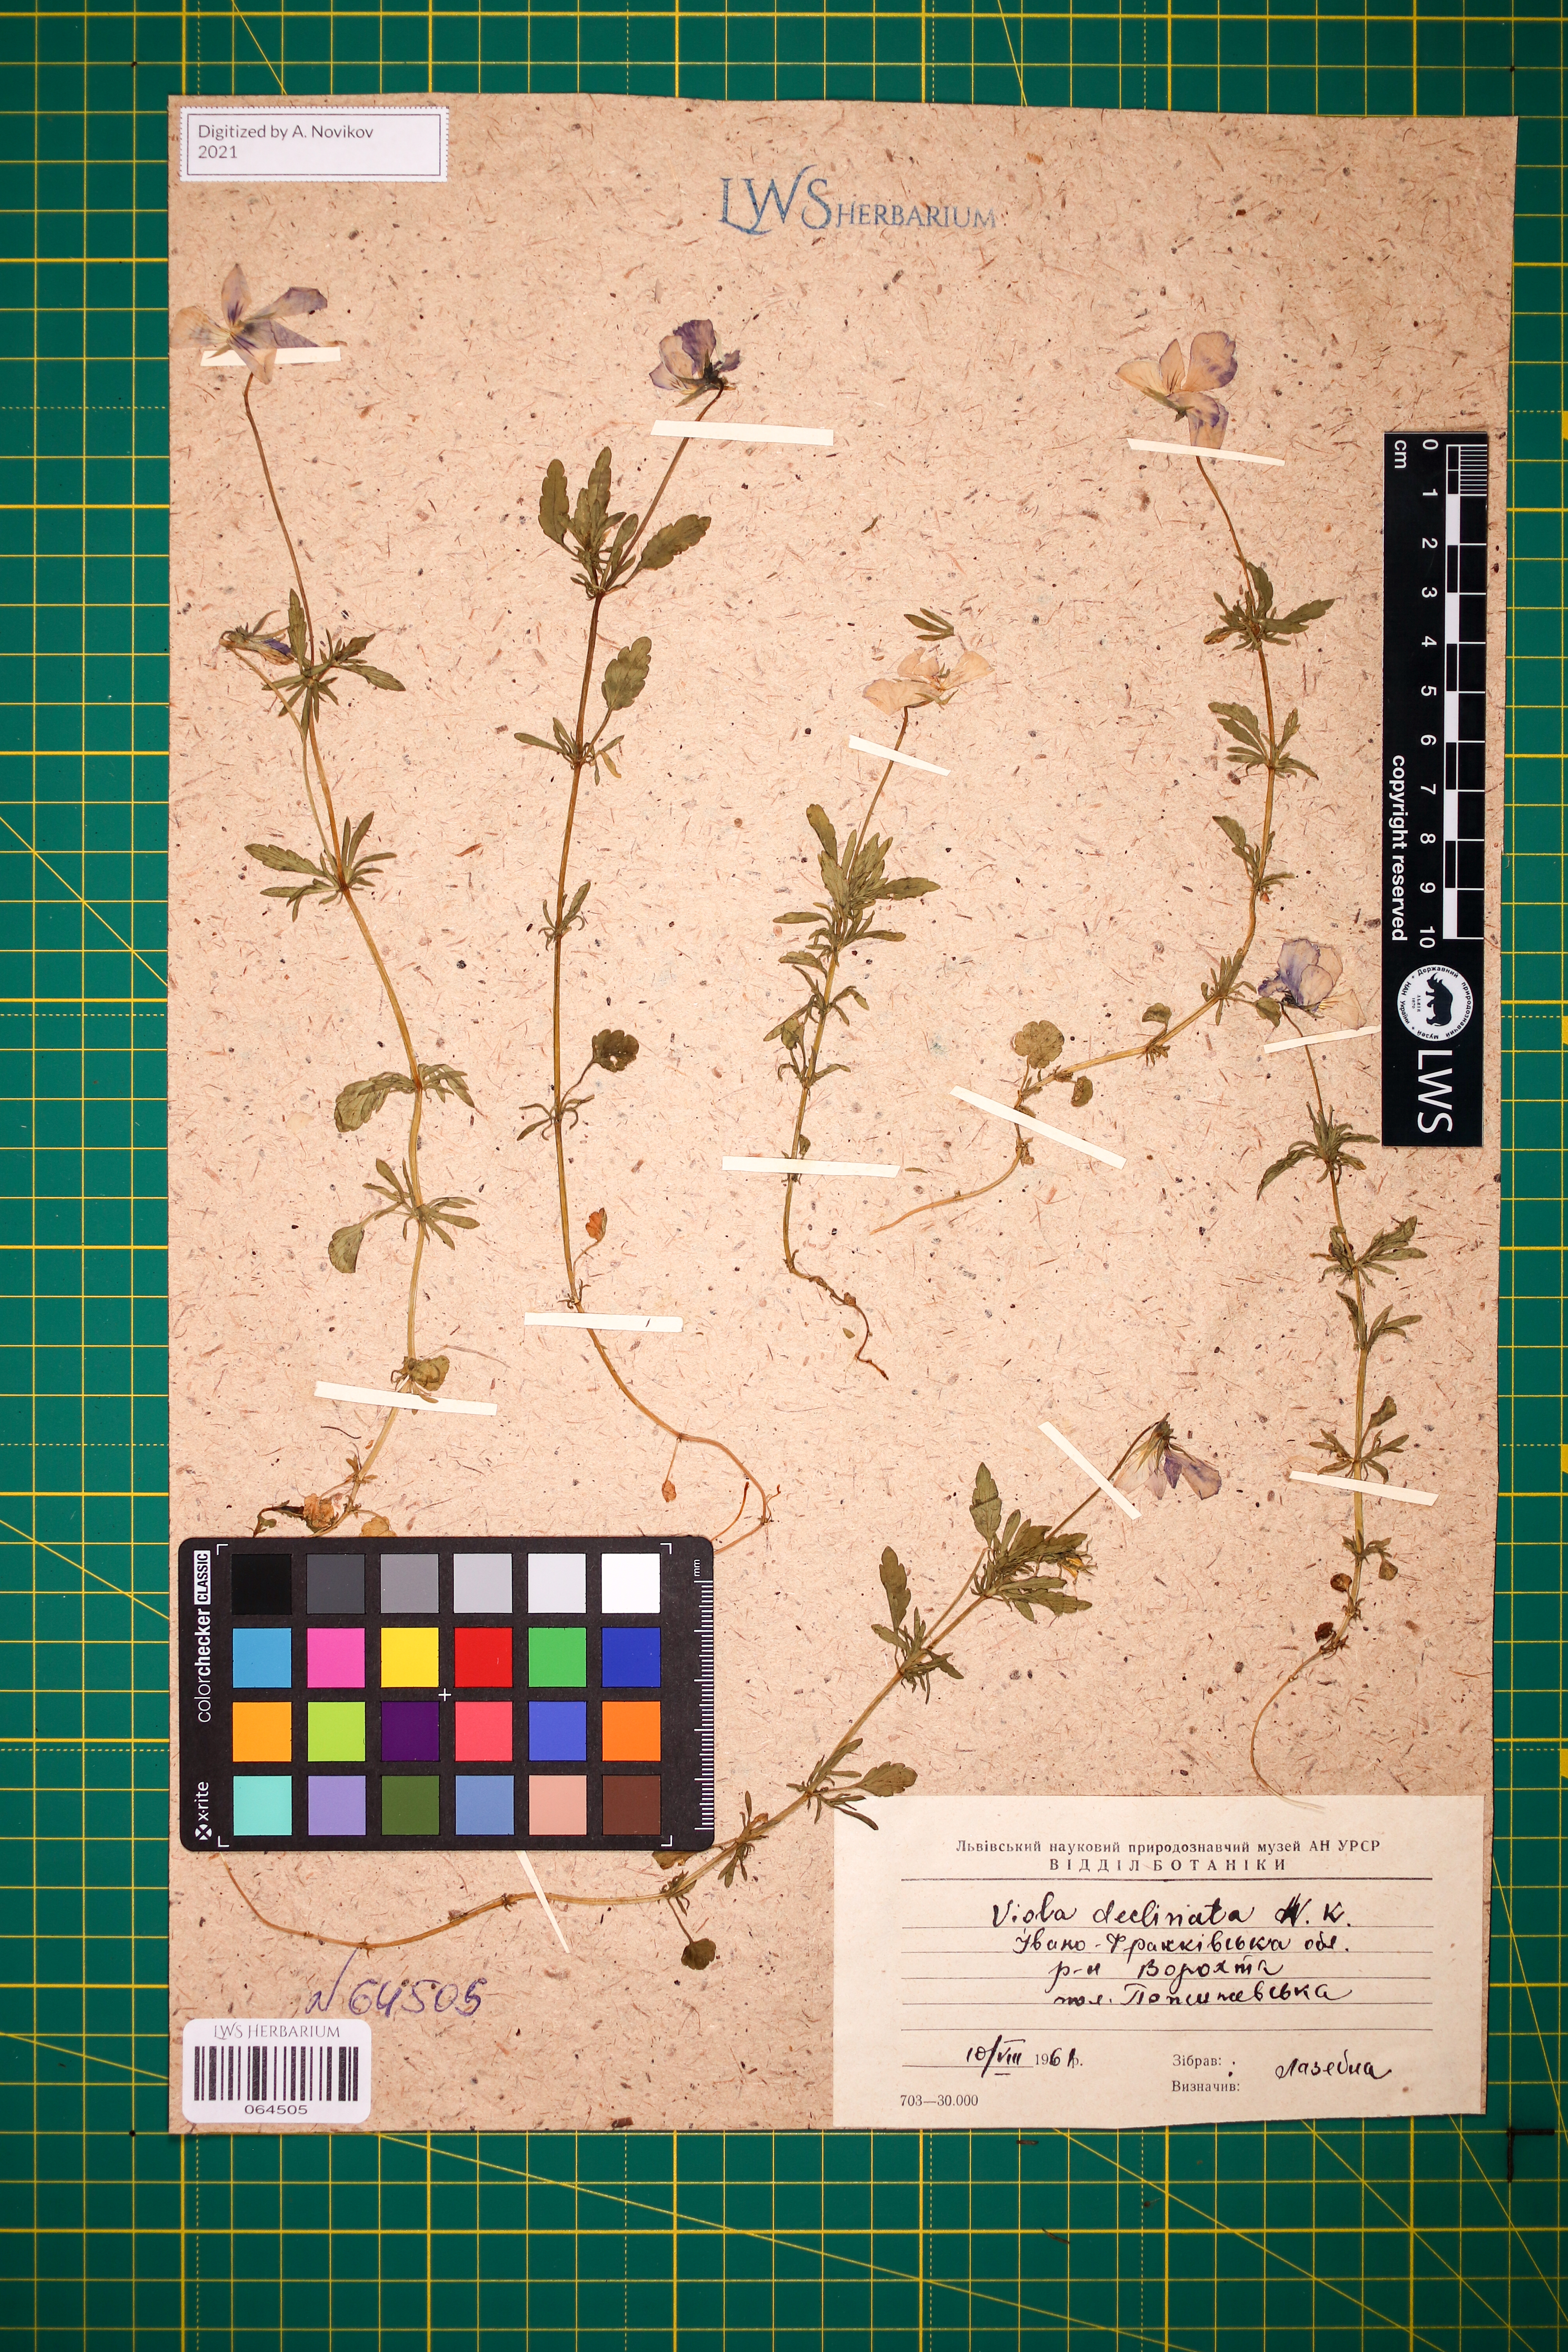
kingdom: Plantae
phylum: Tracheophyta
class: Magnoliopsida
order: Malpighiales
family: Violaceae
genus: Viola
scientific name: Viola declinata
